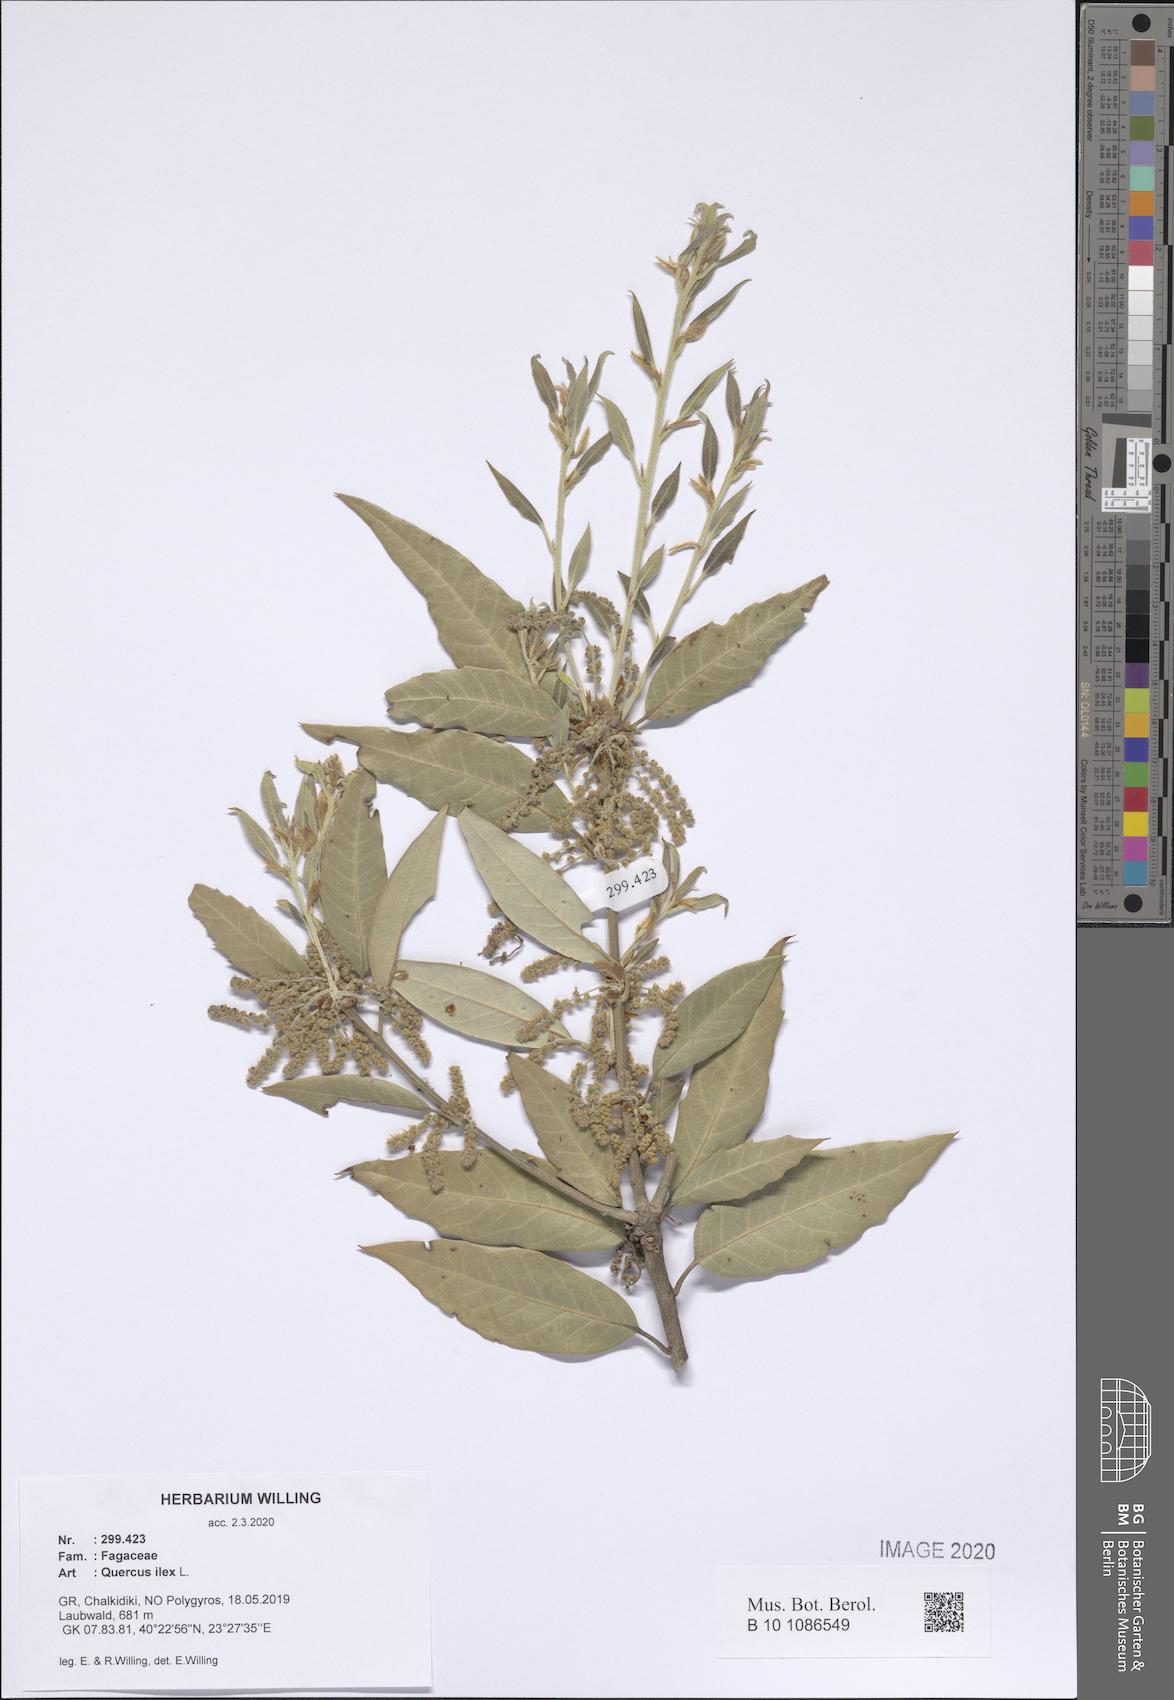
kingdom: Plantae
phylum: Tracheophyta
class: Magnoliopsida
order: Fagales
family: Fagaceae
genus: Quercus
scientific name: Quercus ilex
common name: Evergreen oak
